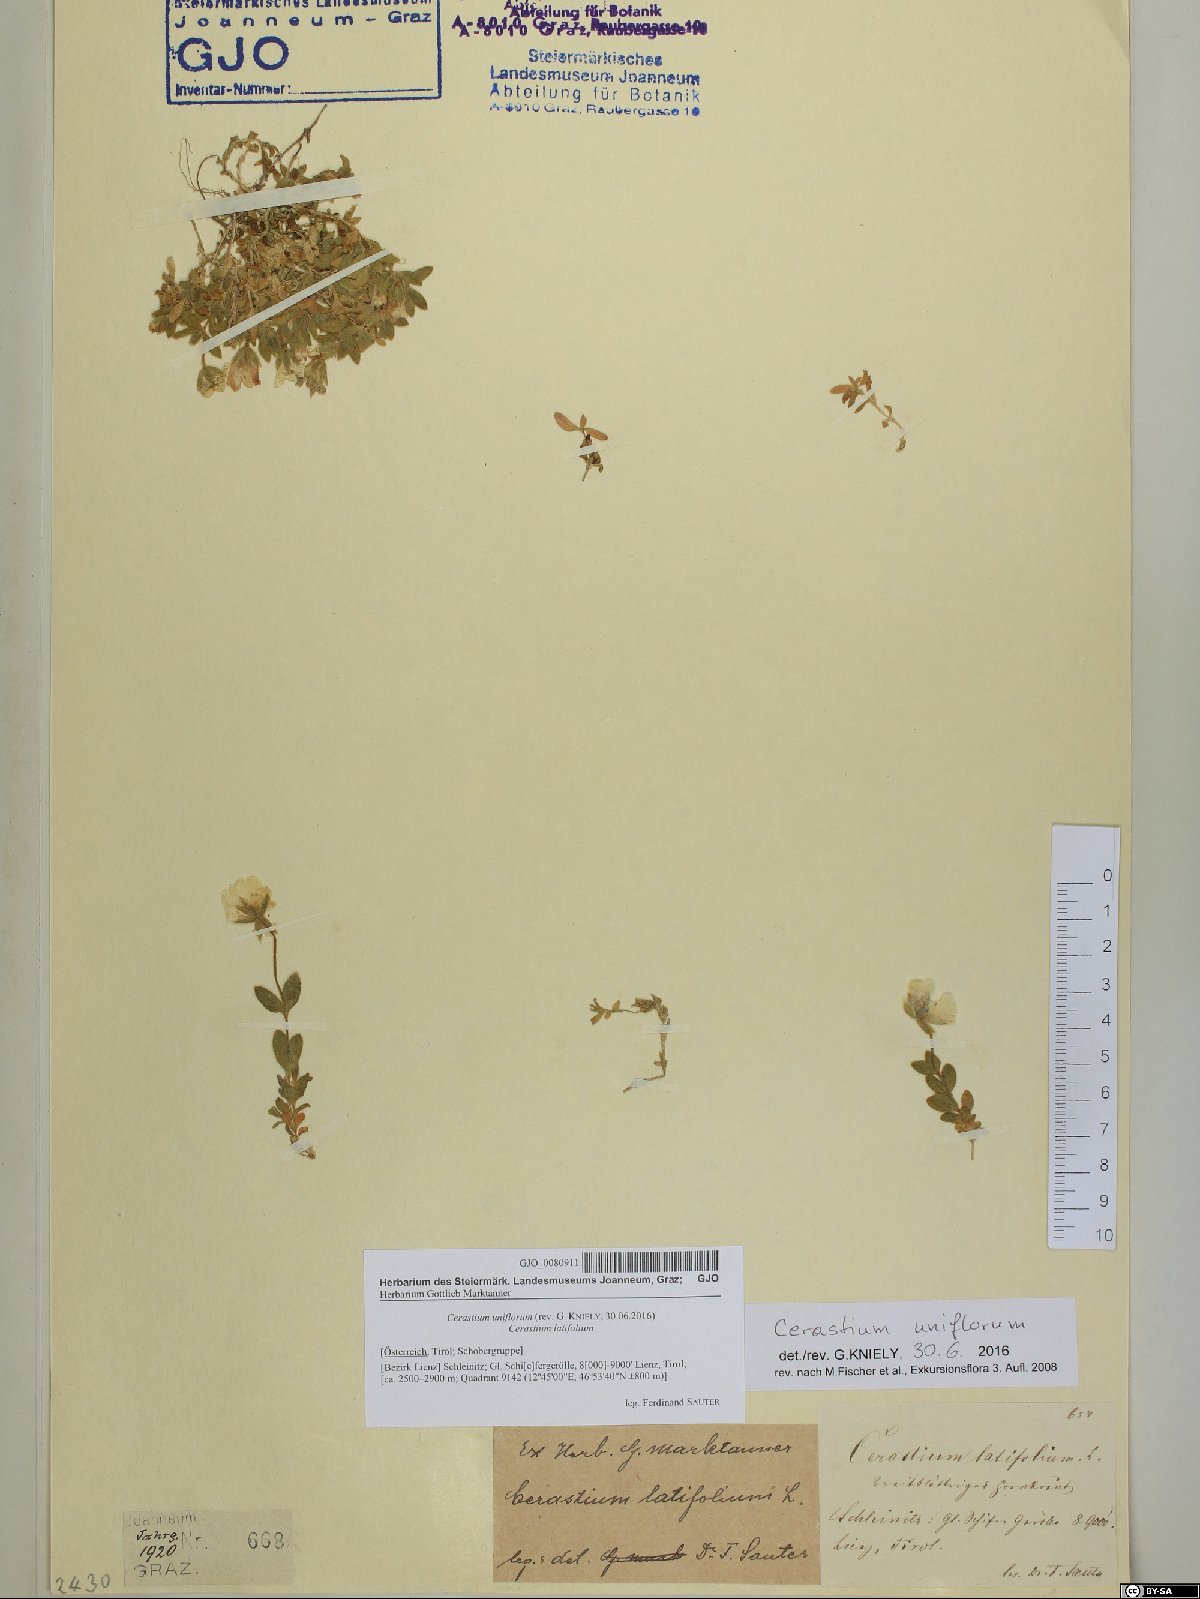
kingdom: Plantae
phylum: Tracheophyta
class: Magnoliopsida
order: Caryophyllales
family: Caryophyllaceae
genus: Cerastium
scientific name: Cerastium uniflorum
